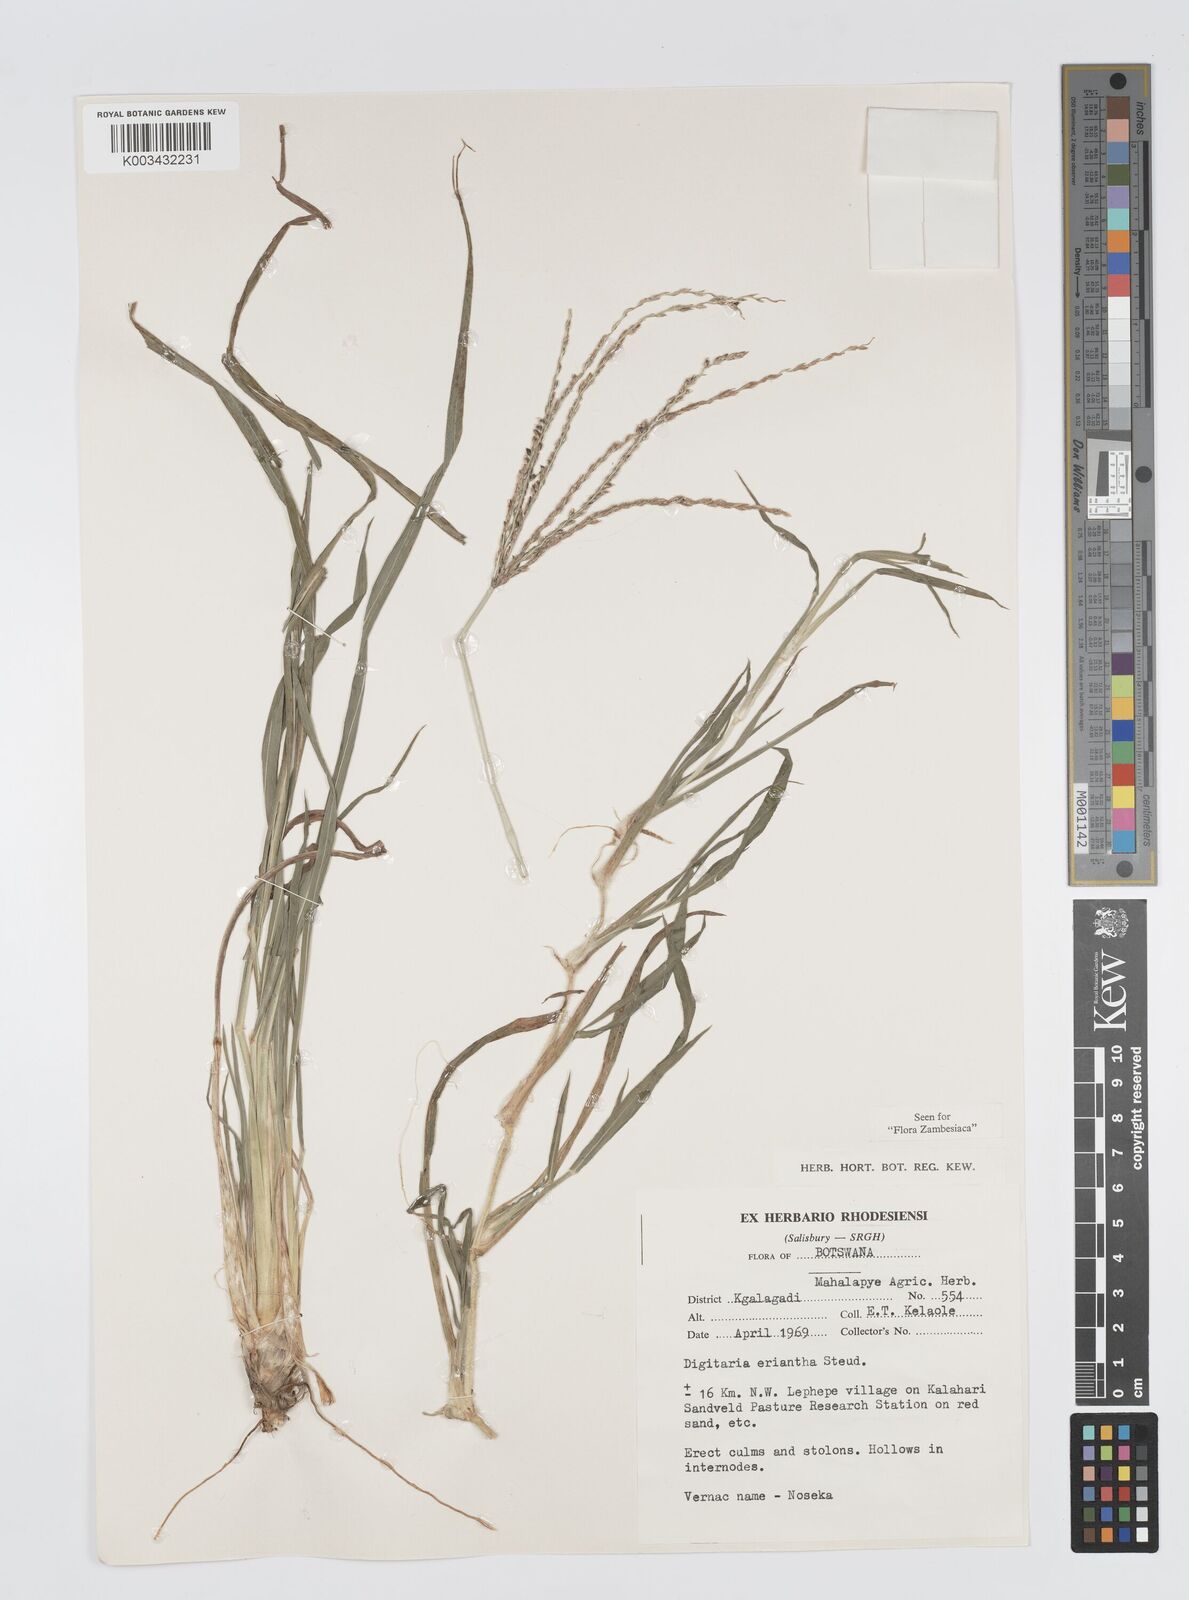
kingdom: Plantae
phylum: Tracheophyta
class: Liliopsida
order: Poales
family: Poaceae
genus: Digitaria
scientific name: Digitaria milanjiana
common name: Madagascar crabgrass
